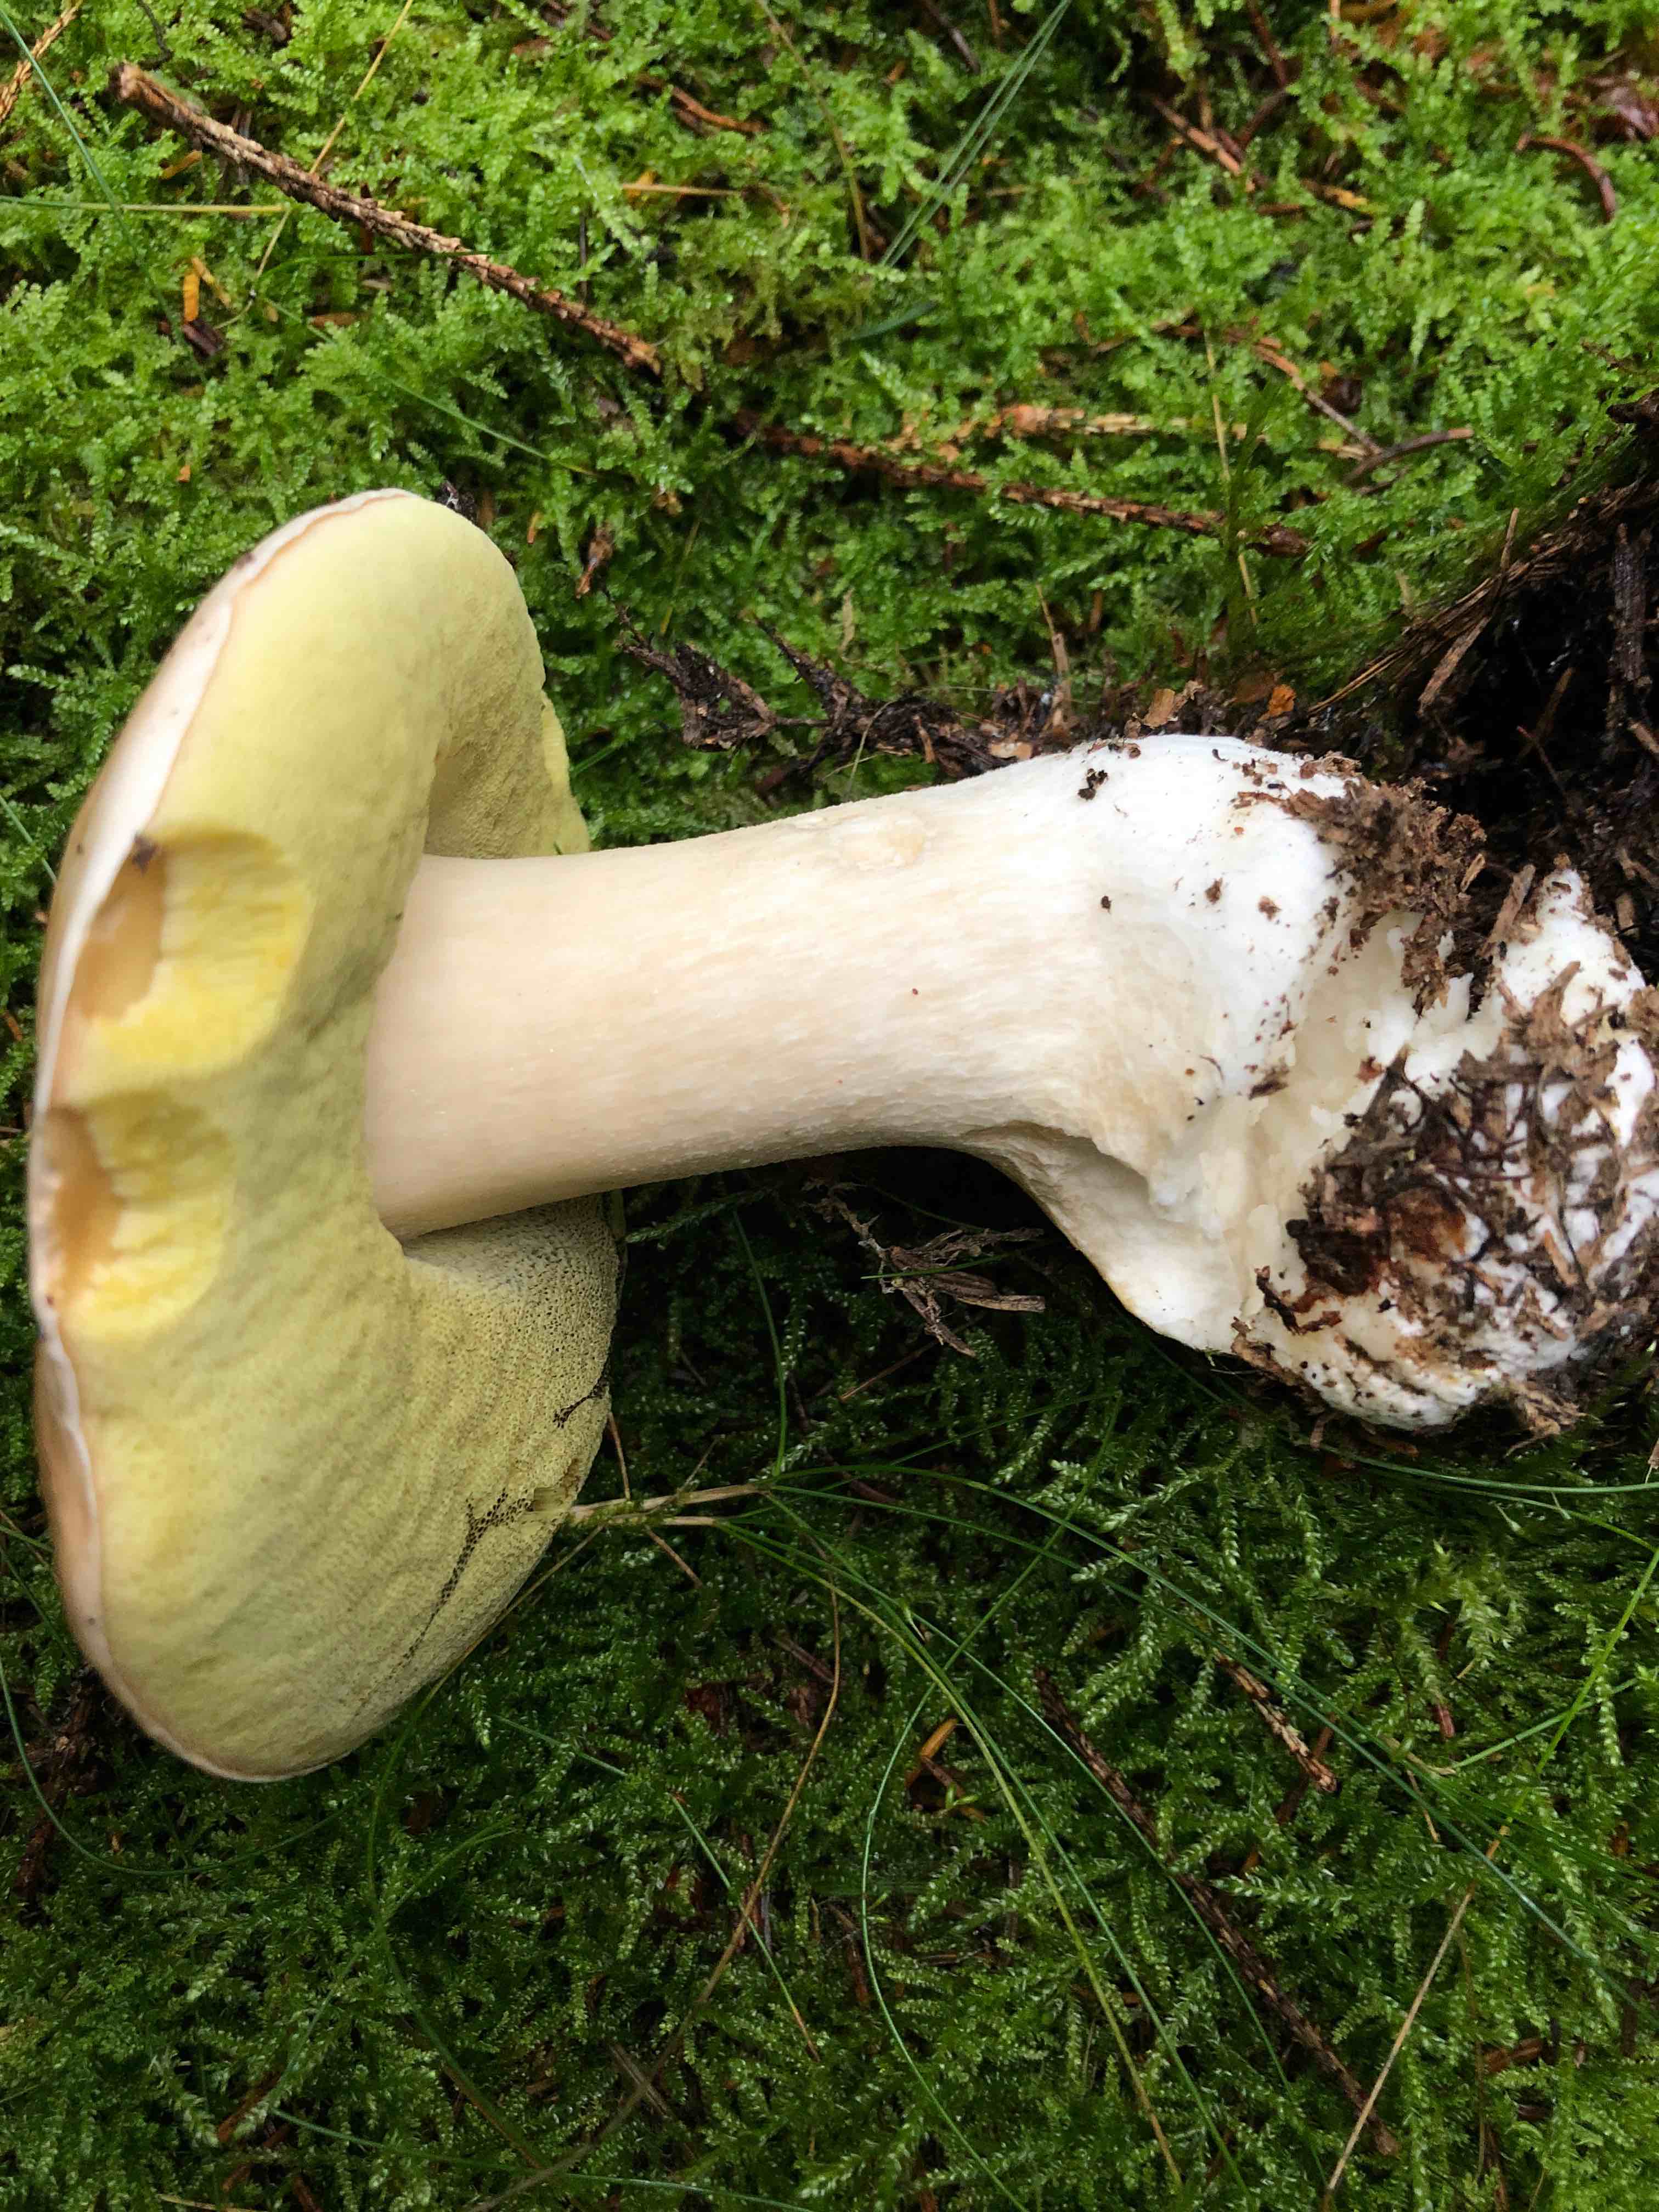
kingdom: Fungi
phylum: Basidiomycota
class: Agaricomycetes
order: Boletales
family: Boletaceae
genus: Boletus
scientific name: Boletus edulis
